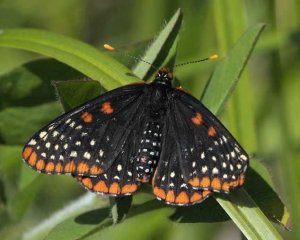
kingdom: Animalia
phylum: Arthropoda
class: Insecta
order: Lepidoptera
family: Nymphalidae
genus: Euphydryas
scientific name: Euphydryas phaeton
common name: Baltimore Checkerspot
